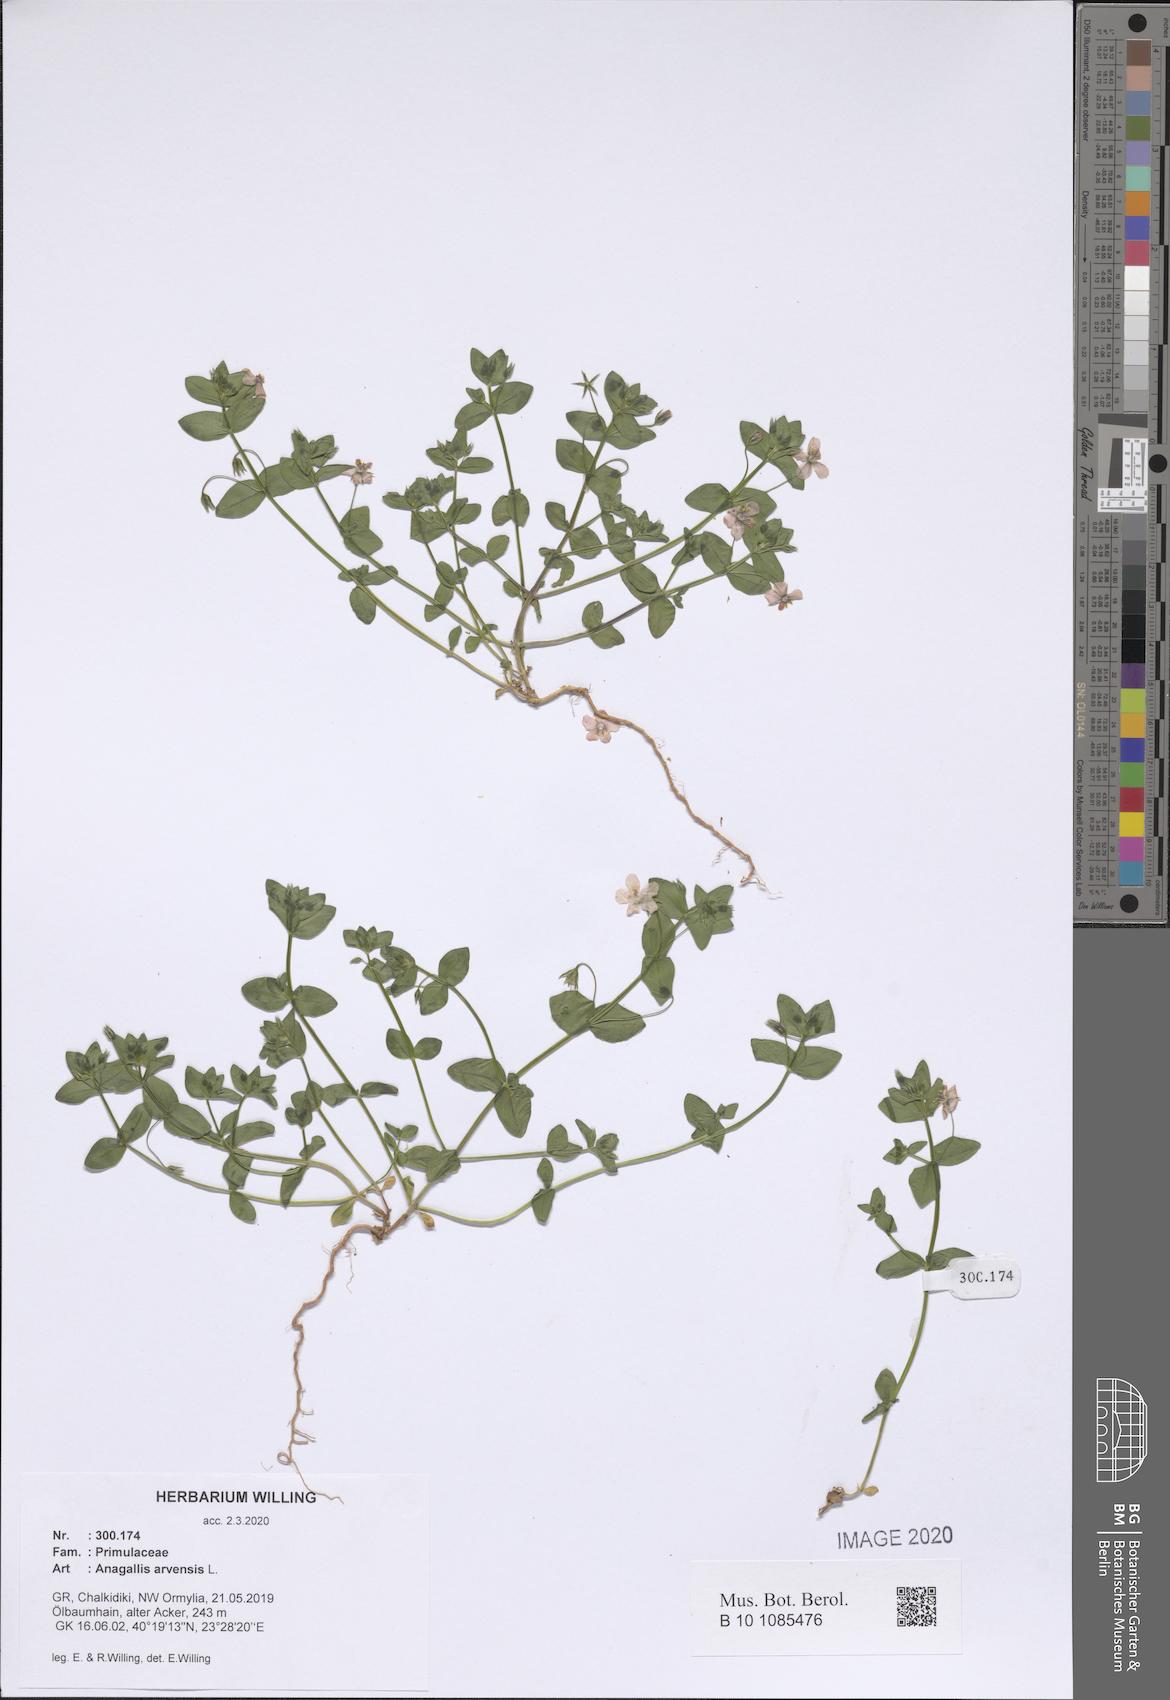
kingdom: Plantae
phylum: Tracheophyta
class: Magnoliopsida
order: Ericales
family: Primulaceae
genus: Lysimachia
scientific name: Lysimachia arvensis
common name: Scarlet pimpernel
